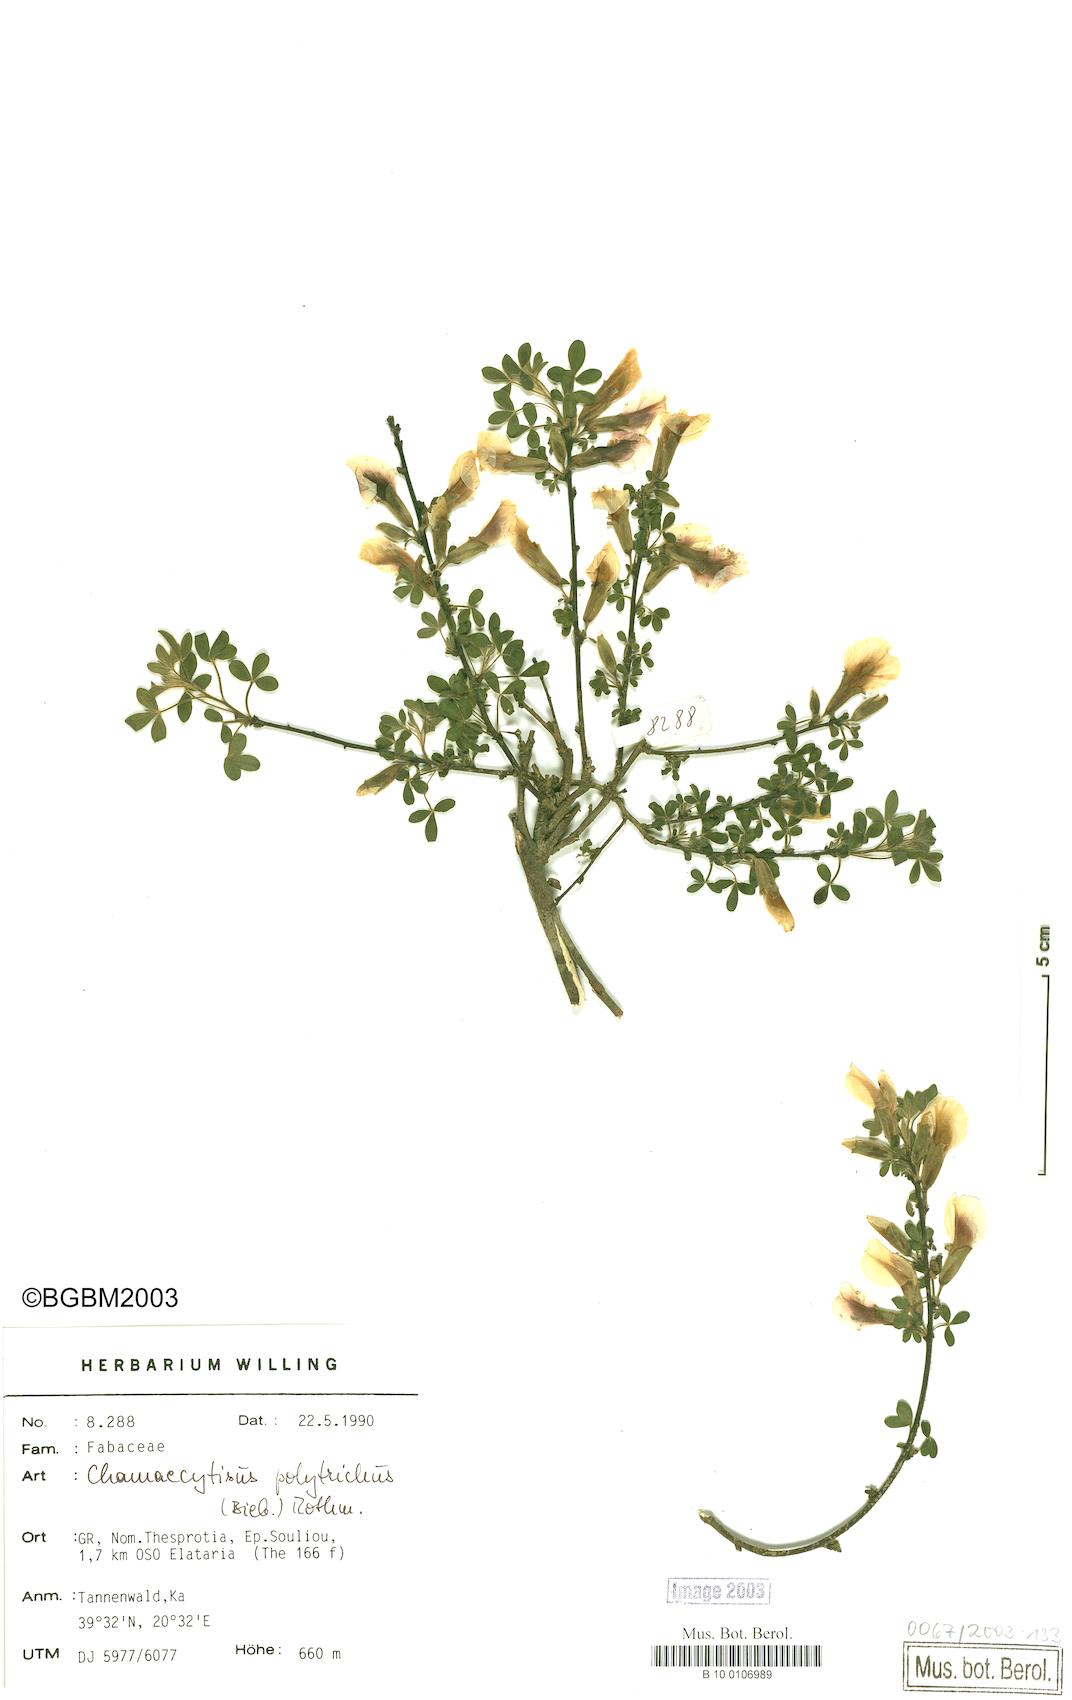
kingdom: Plantae
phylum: Tracheophyta
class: Magnoliopsida
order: Fabales
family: Fabaceae
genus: Chamaecytisus
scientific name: Chamaecytisus hirsutus
